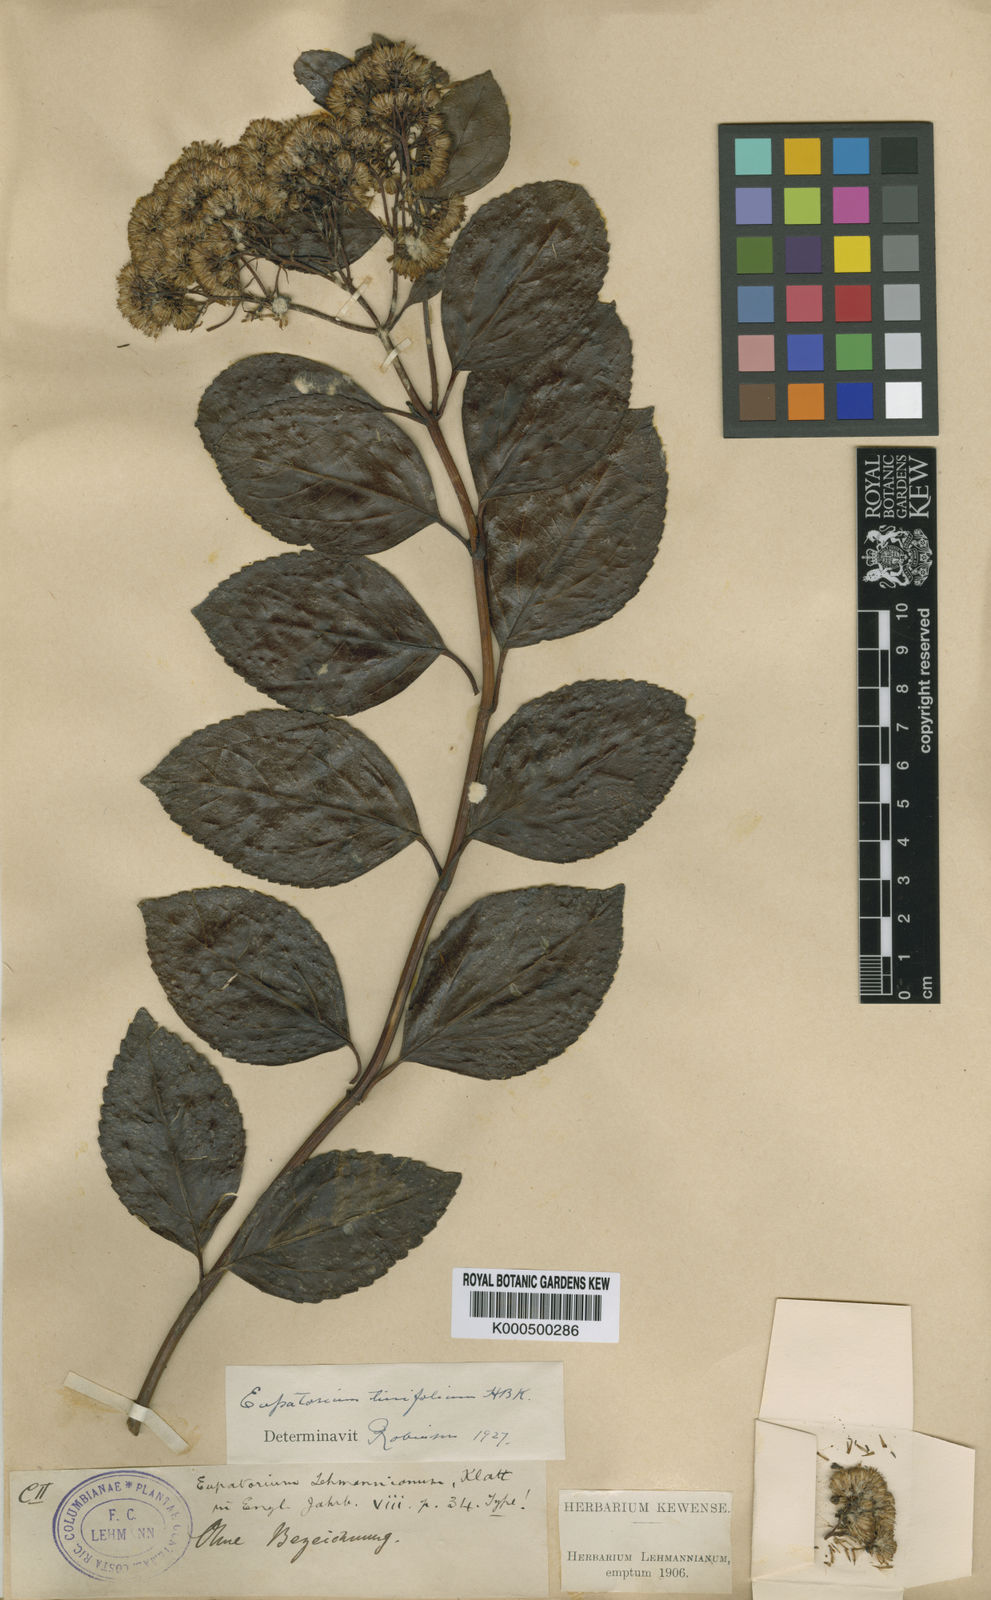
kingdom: Plantae
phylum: Tracheophyta
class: Magnoliopsida
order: Asterales
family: Asteraceae
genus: Ageratina
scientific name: Ageratina tinifolia
